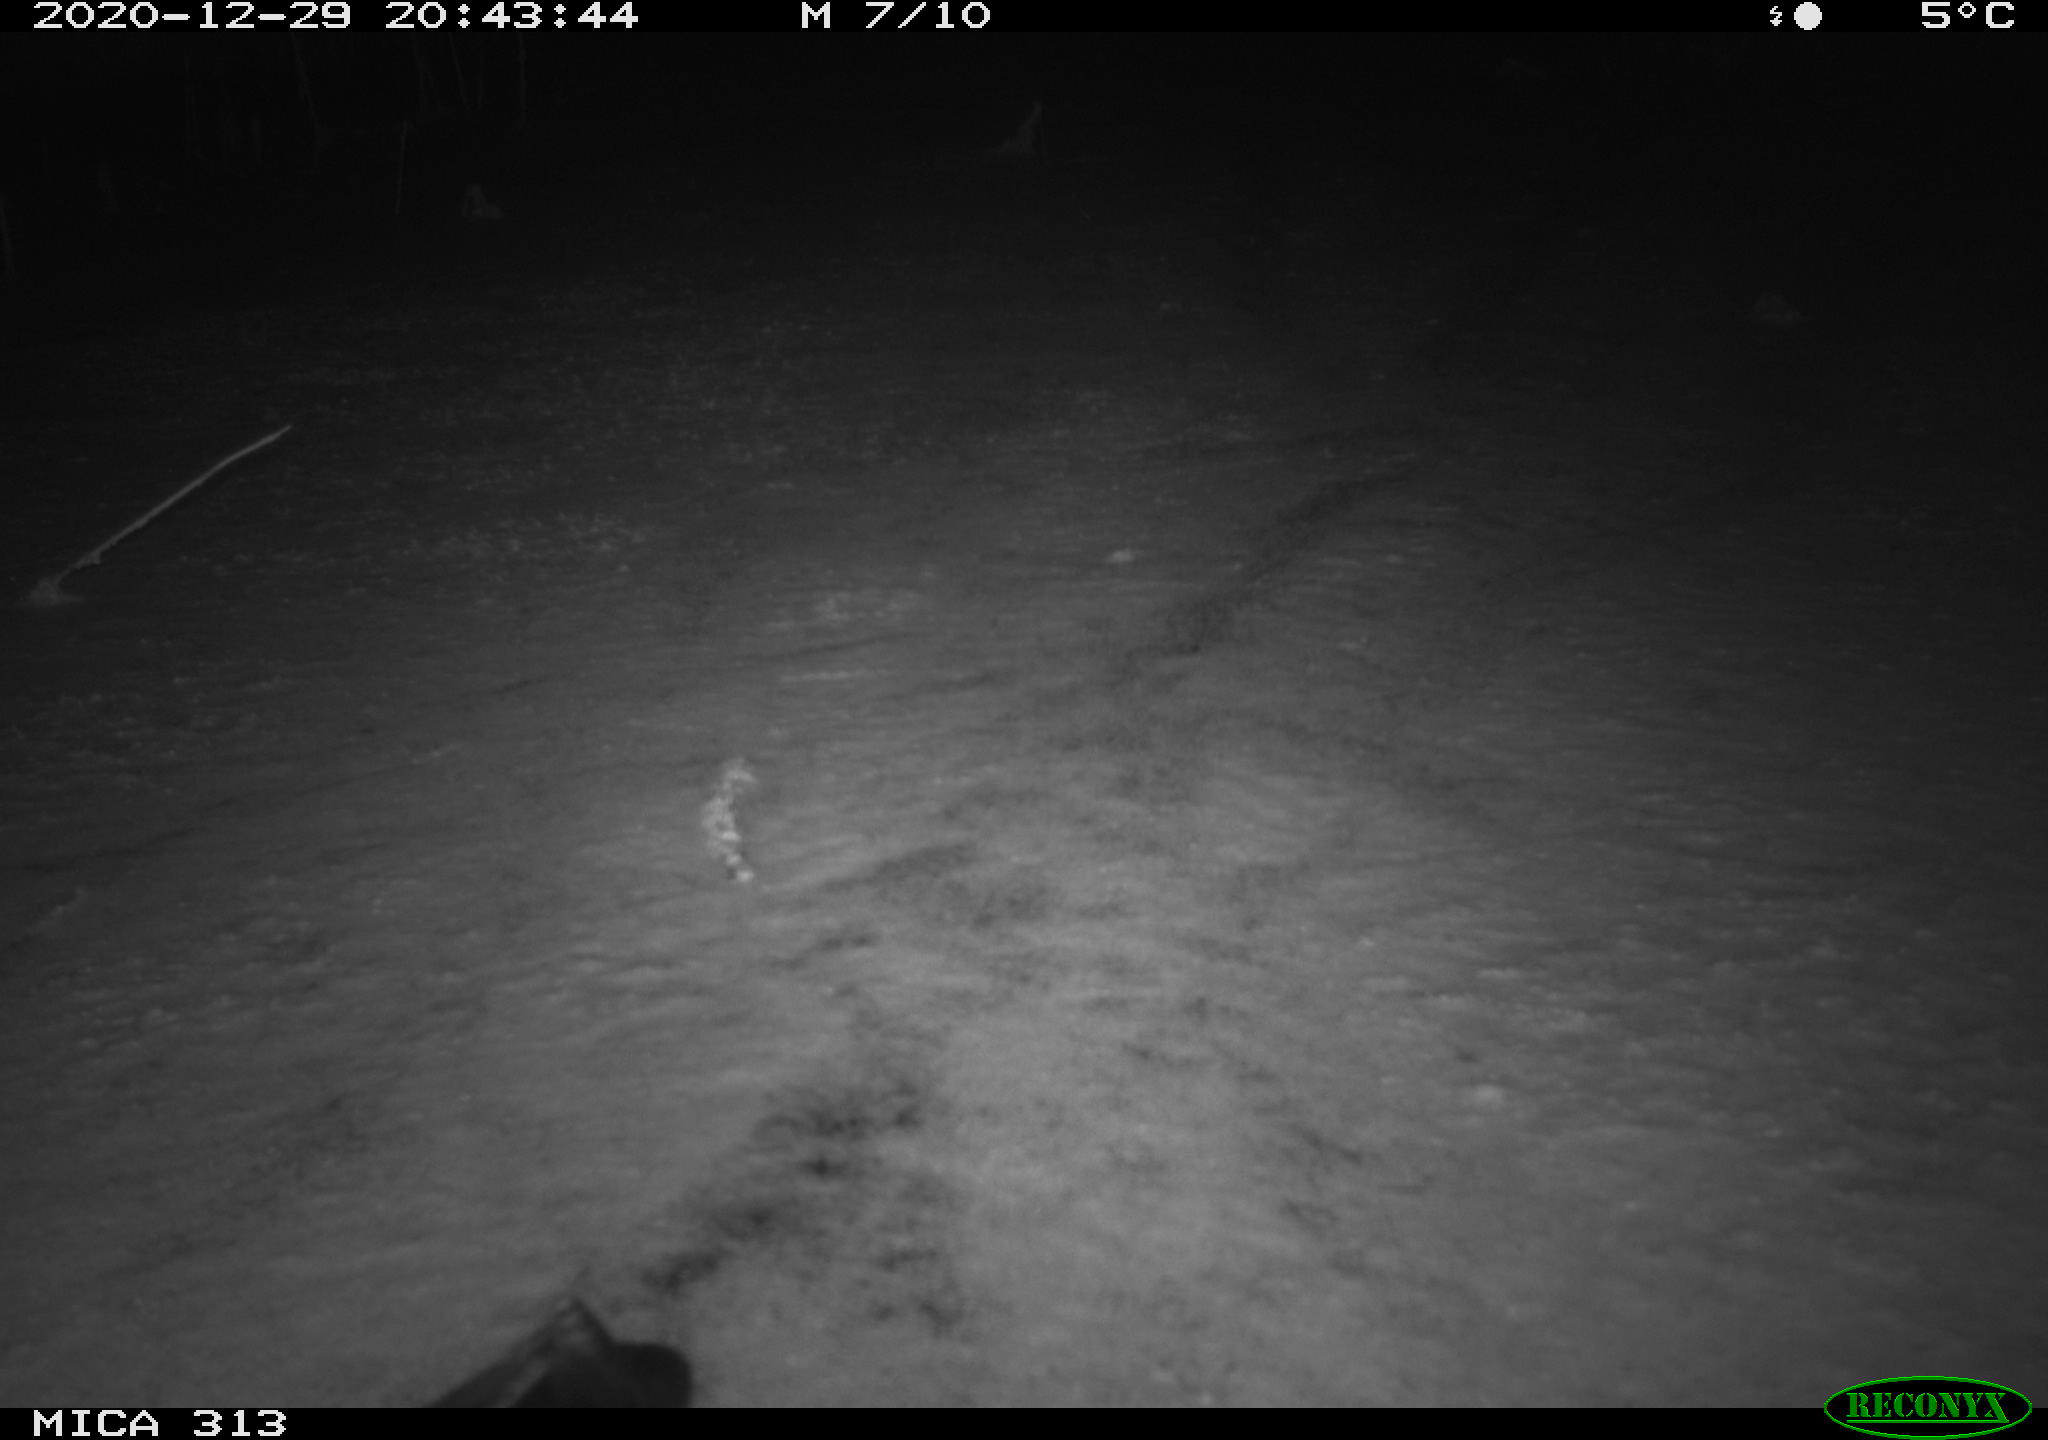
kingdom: Animalia
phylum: Chordata
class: Aves
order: Gruiformes
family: Rallidae
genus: Gallinula
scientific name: Gallinula chloropus
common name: Common moorhen
